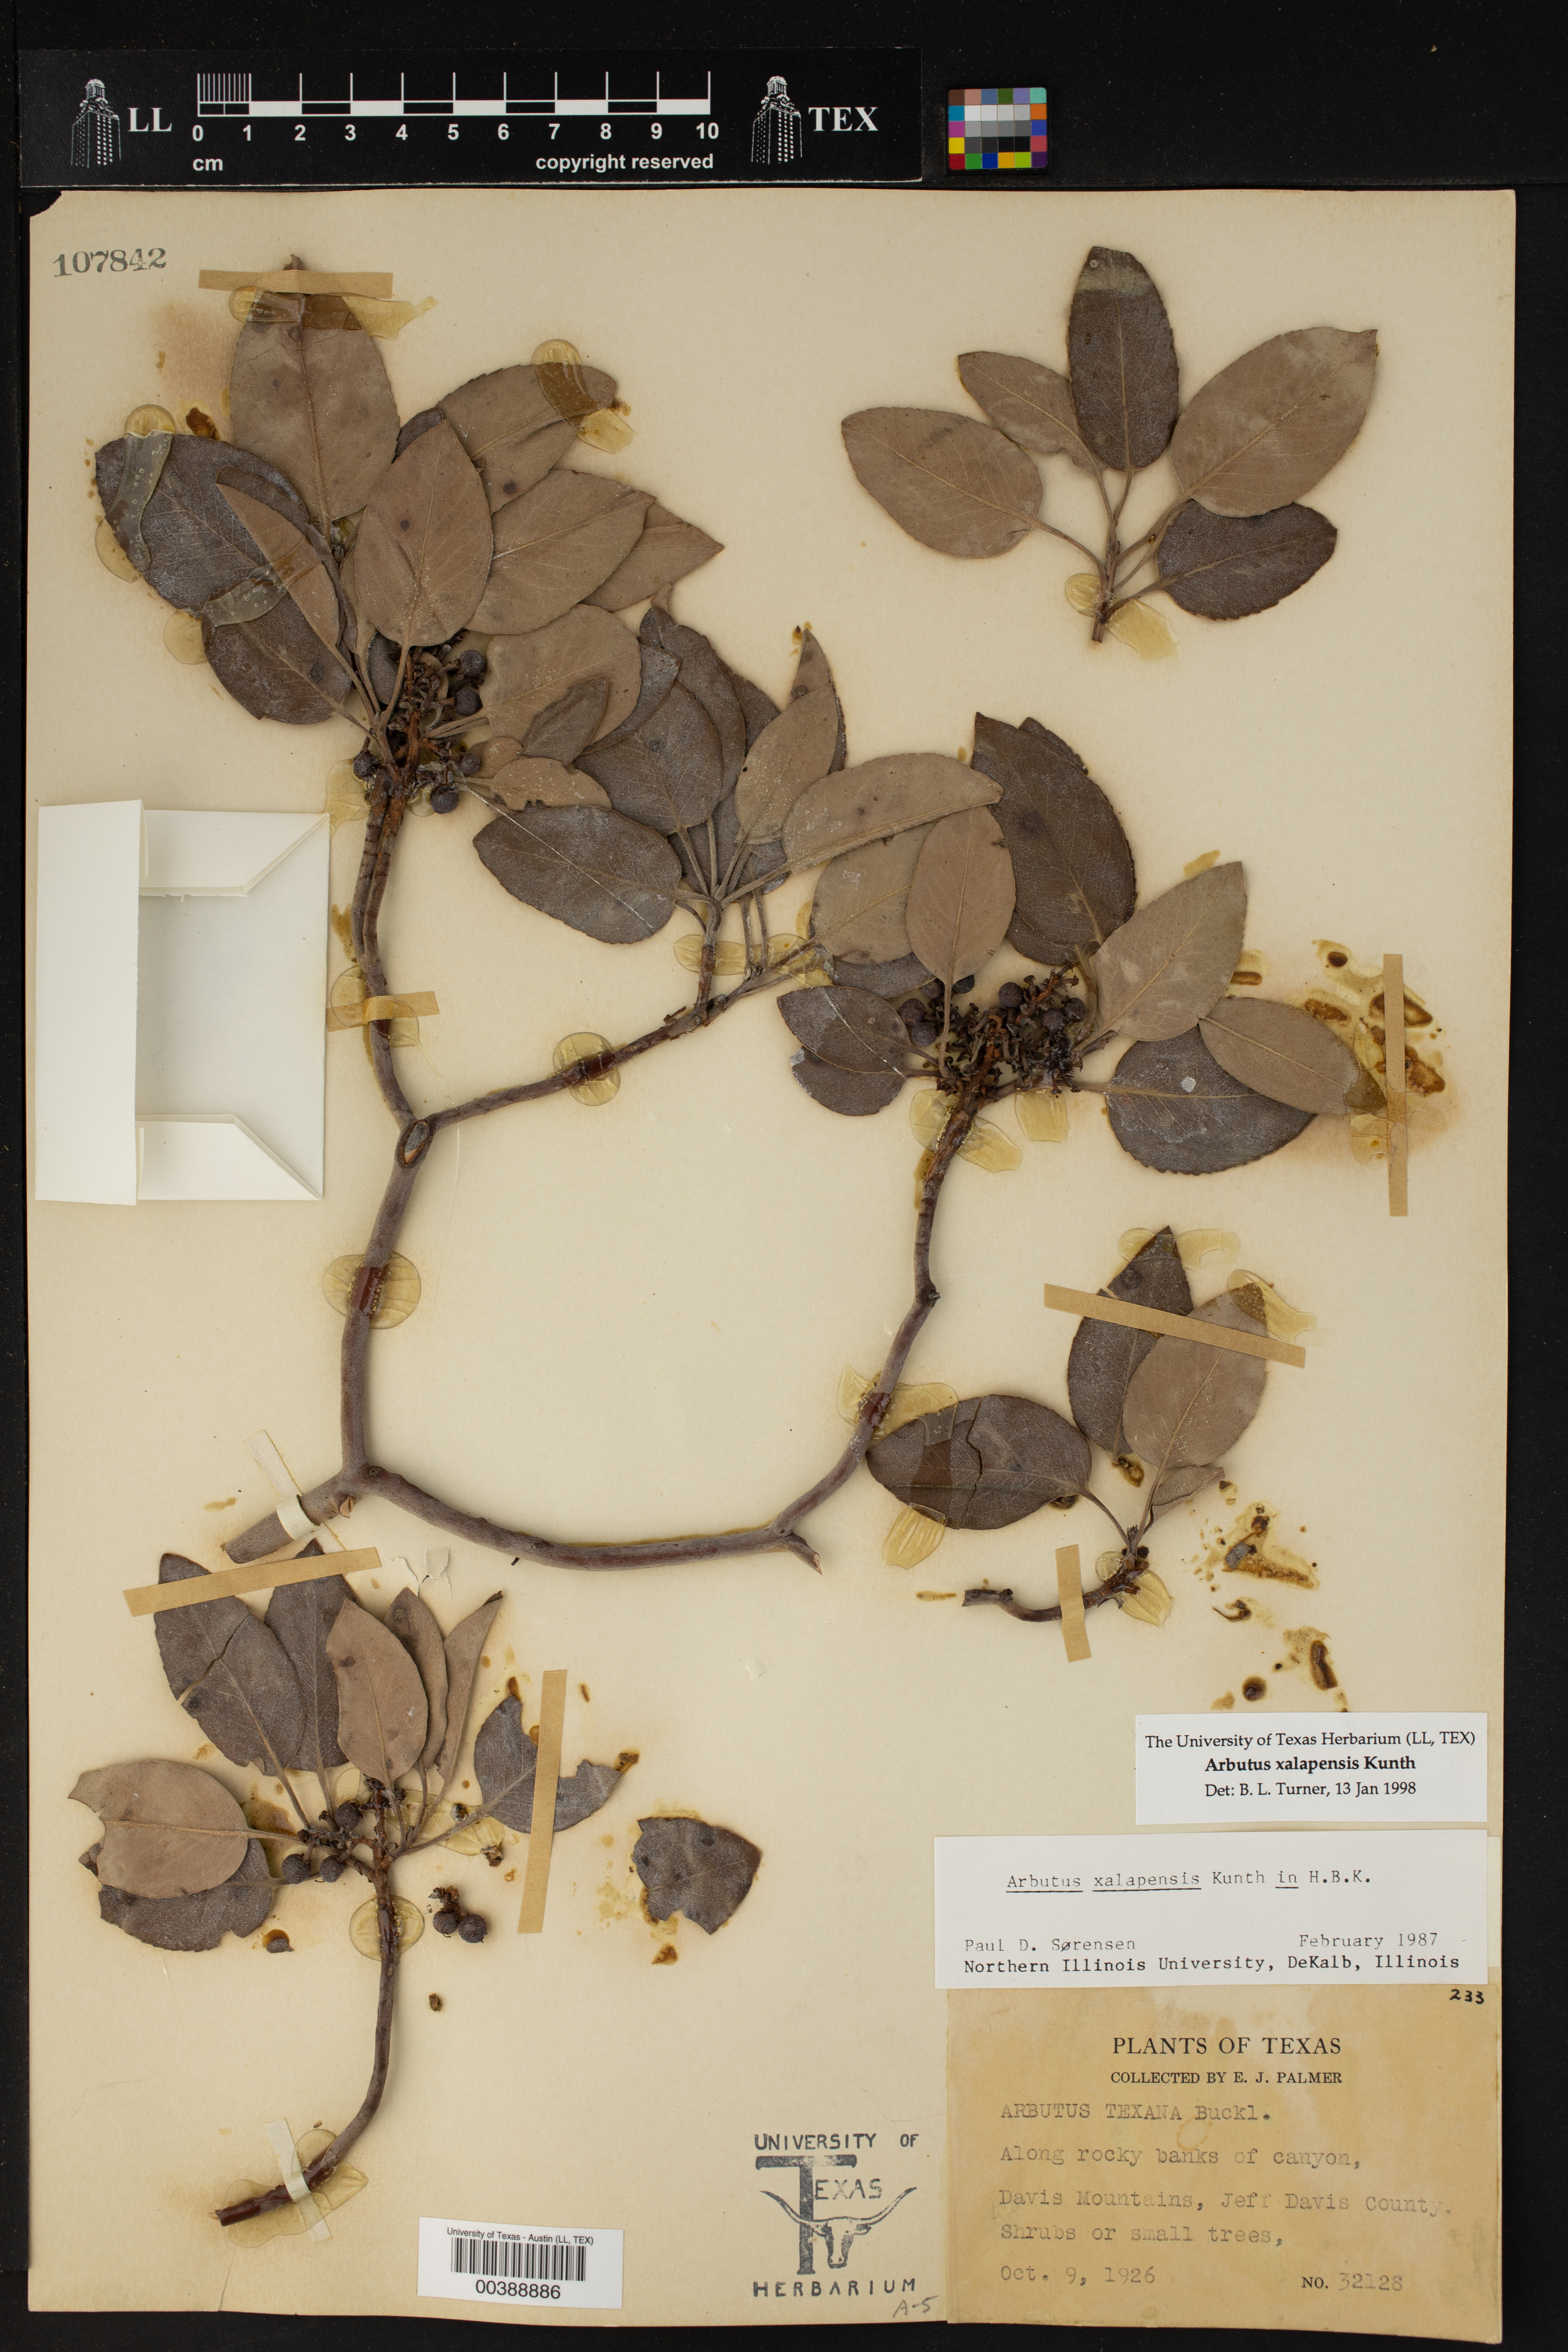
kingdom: Plantae
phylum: Tracheophyta
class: Magnoliopsida
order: Ericales
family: Ericaceae
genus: Arbutus
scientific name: Arbutus xalapensis
